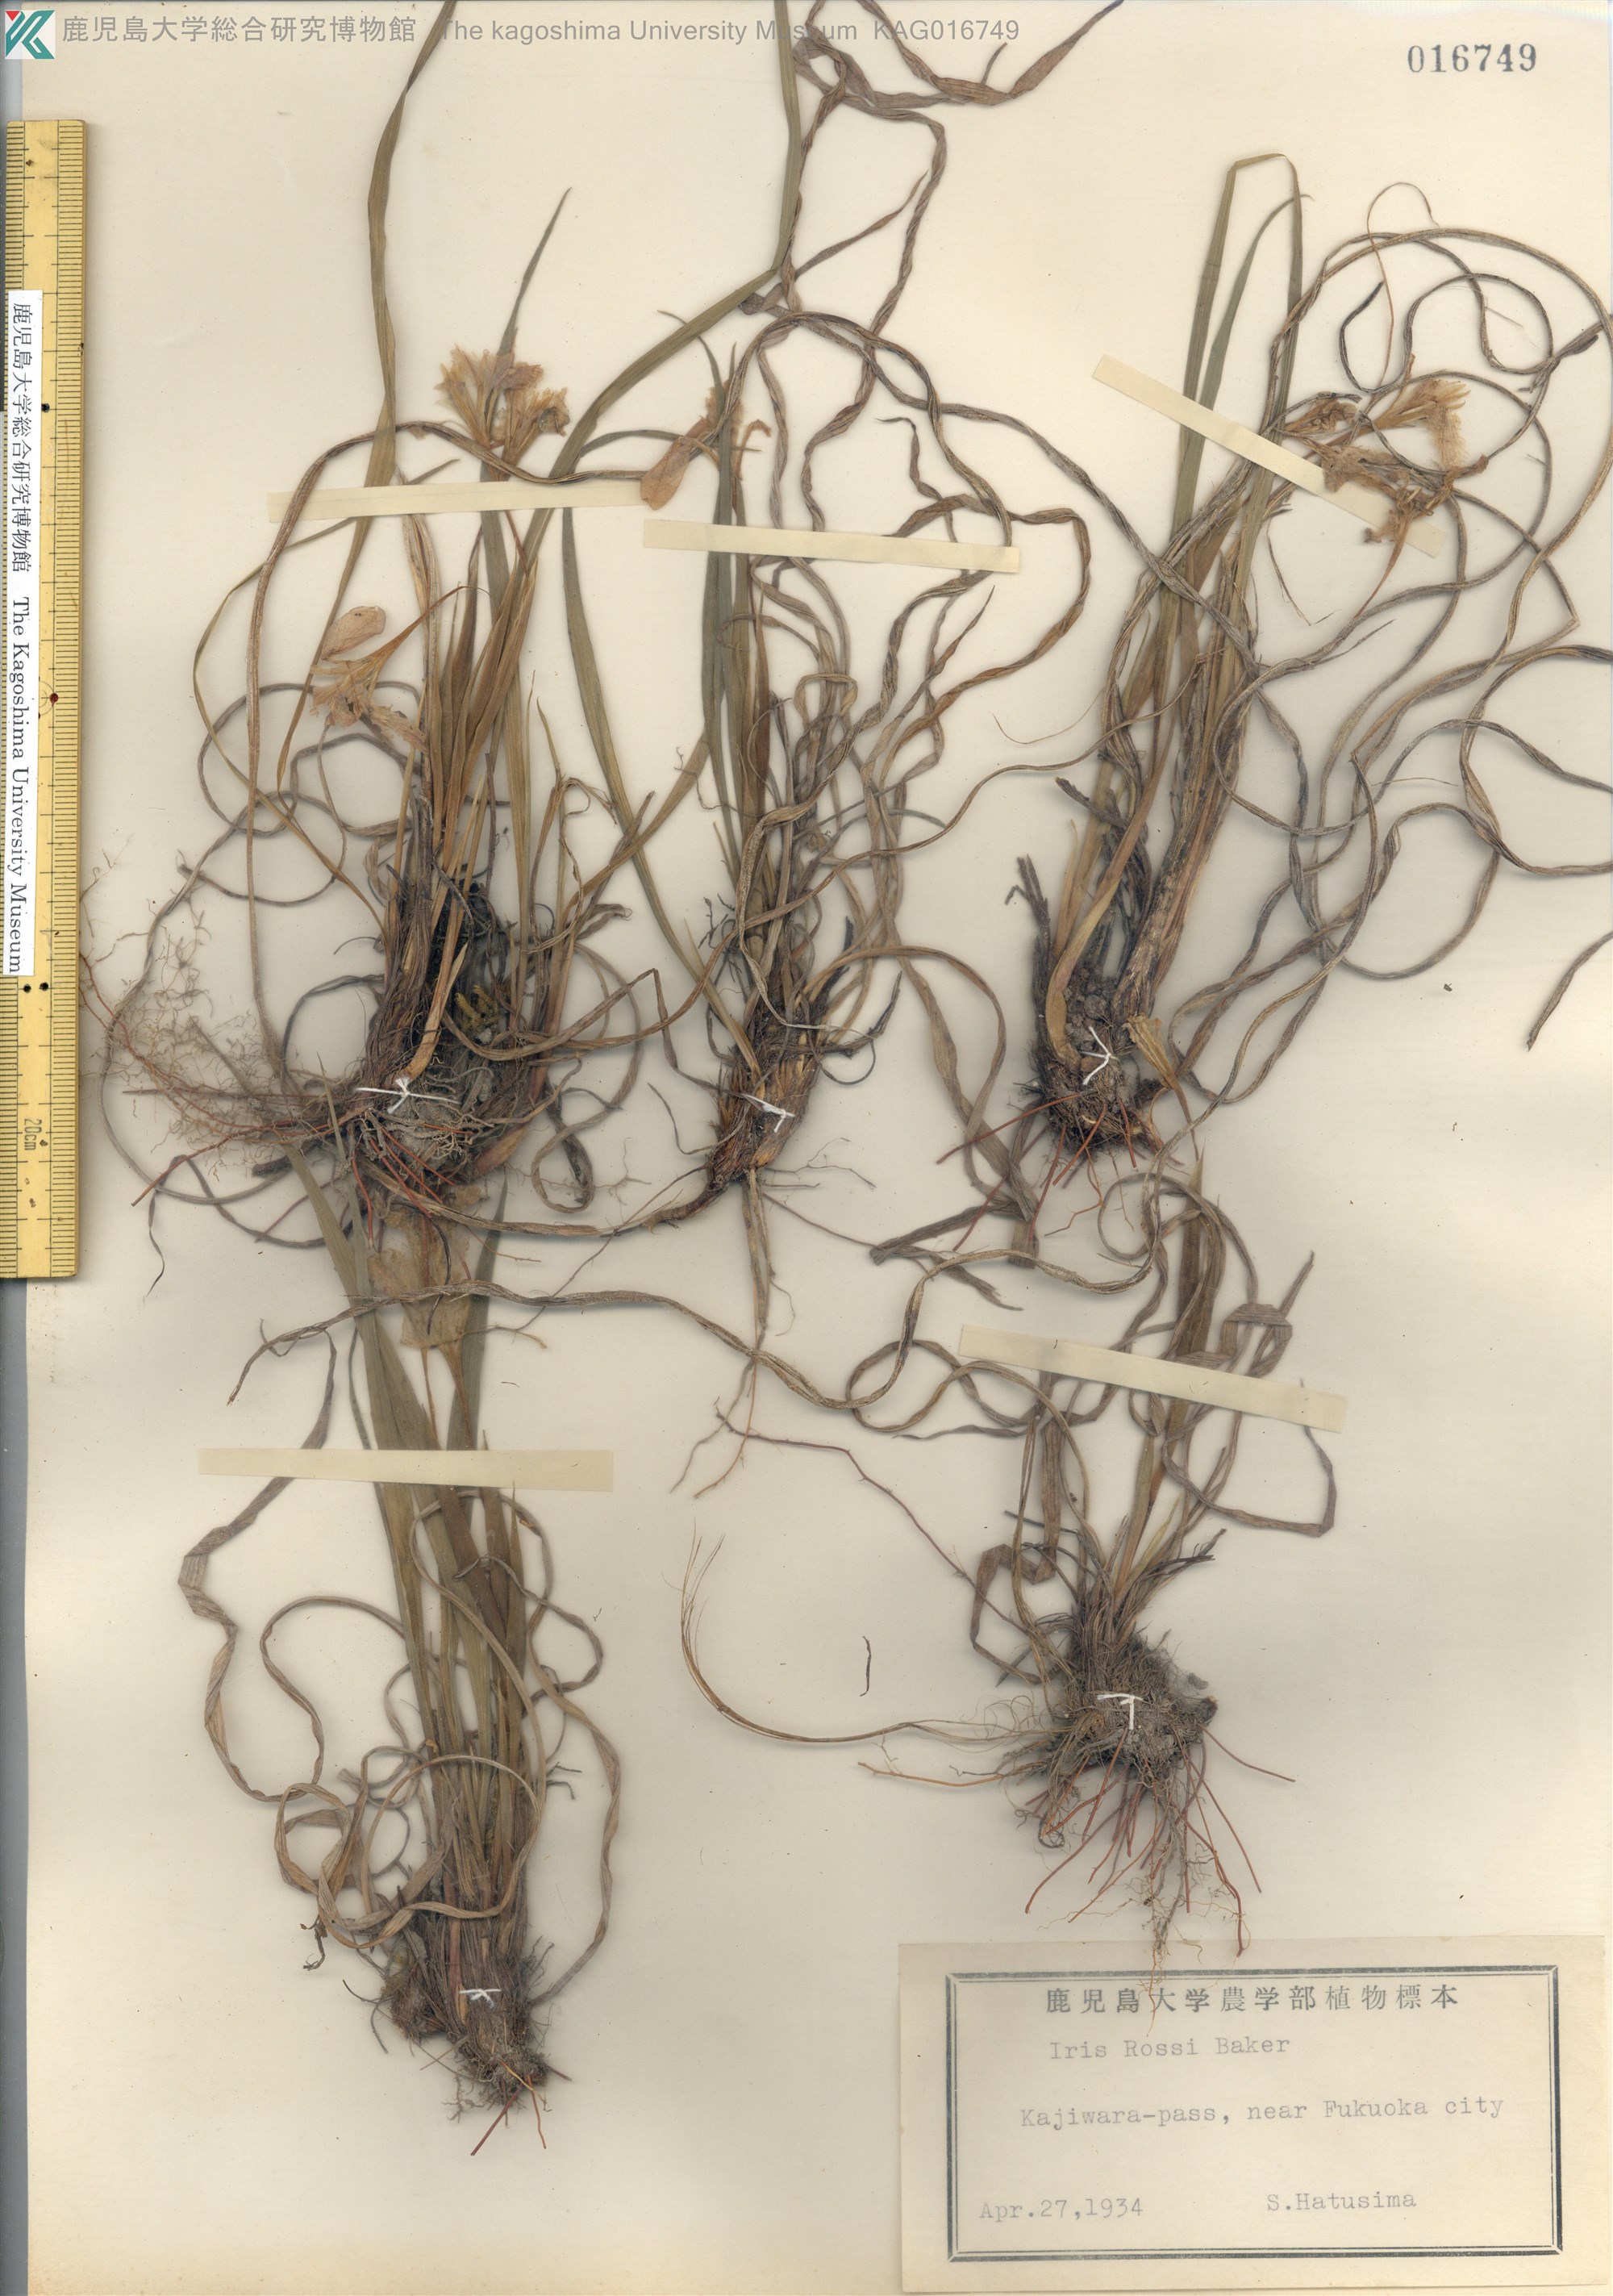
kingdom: Plantae
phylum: Tracheophyta
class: Liliopsida
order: Asparagales
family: Iridaceae
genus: Iris
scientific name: Iris rossii
